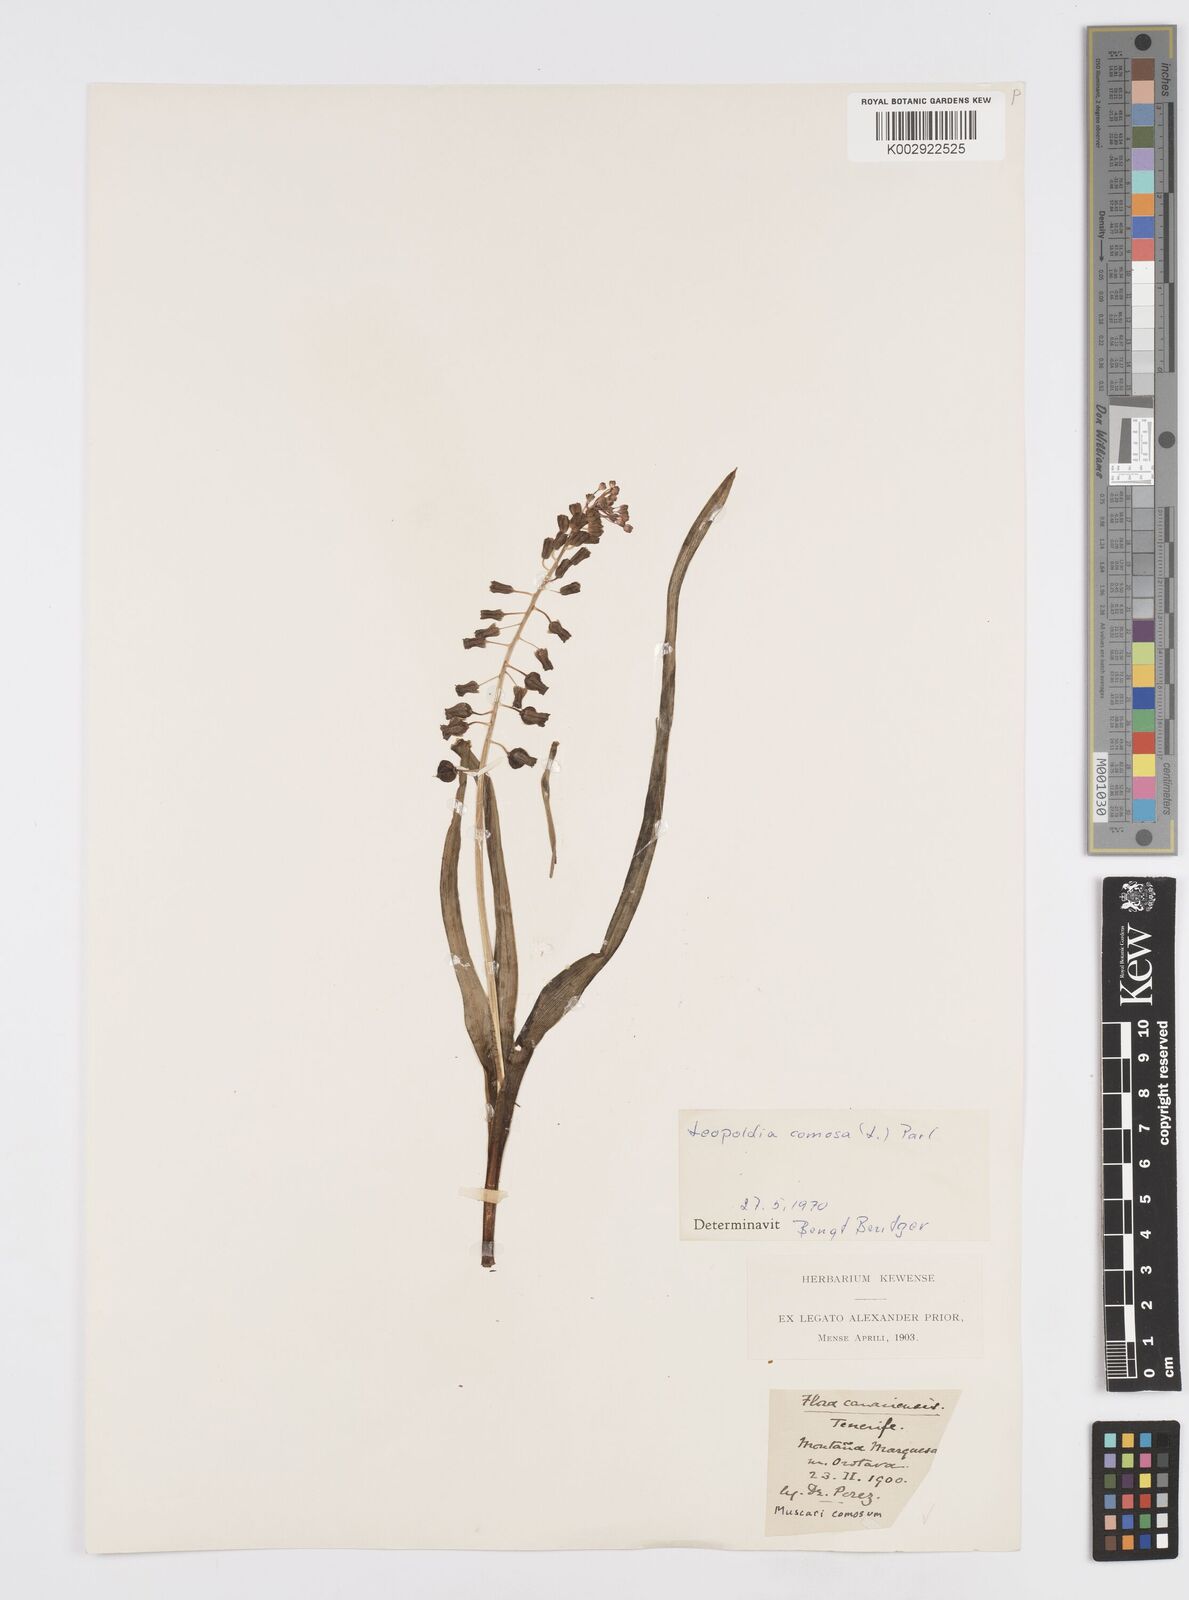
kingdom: Plantae
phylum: Tracheophyta
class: Liliopsida
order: Asparagales
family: Asparagaceae
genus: Muscari
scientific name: Muscari comosum
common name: Tassel hyacinth
